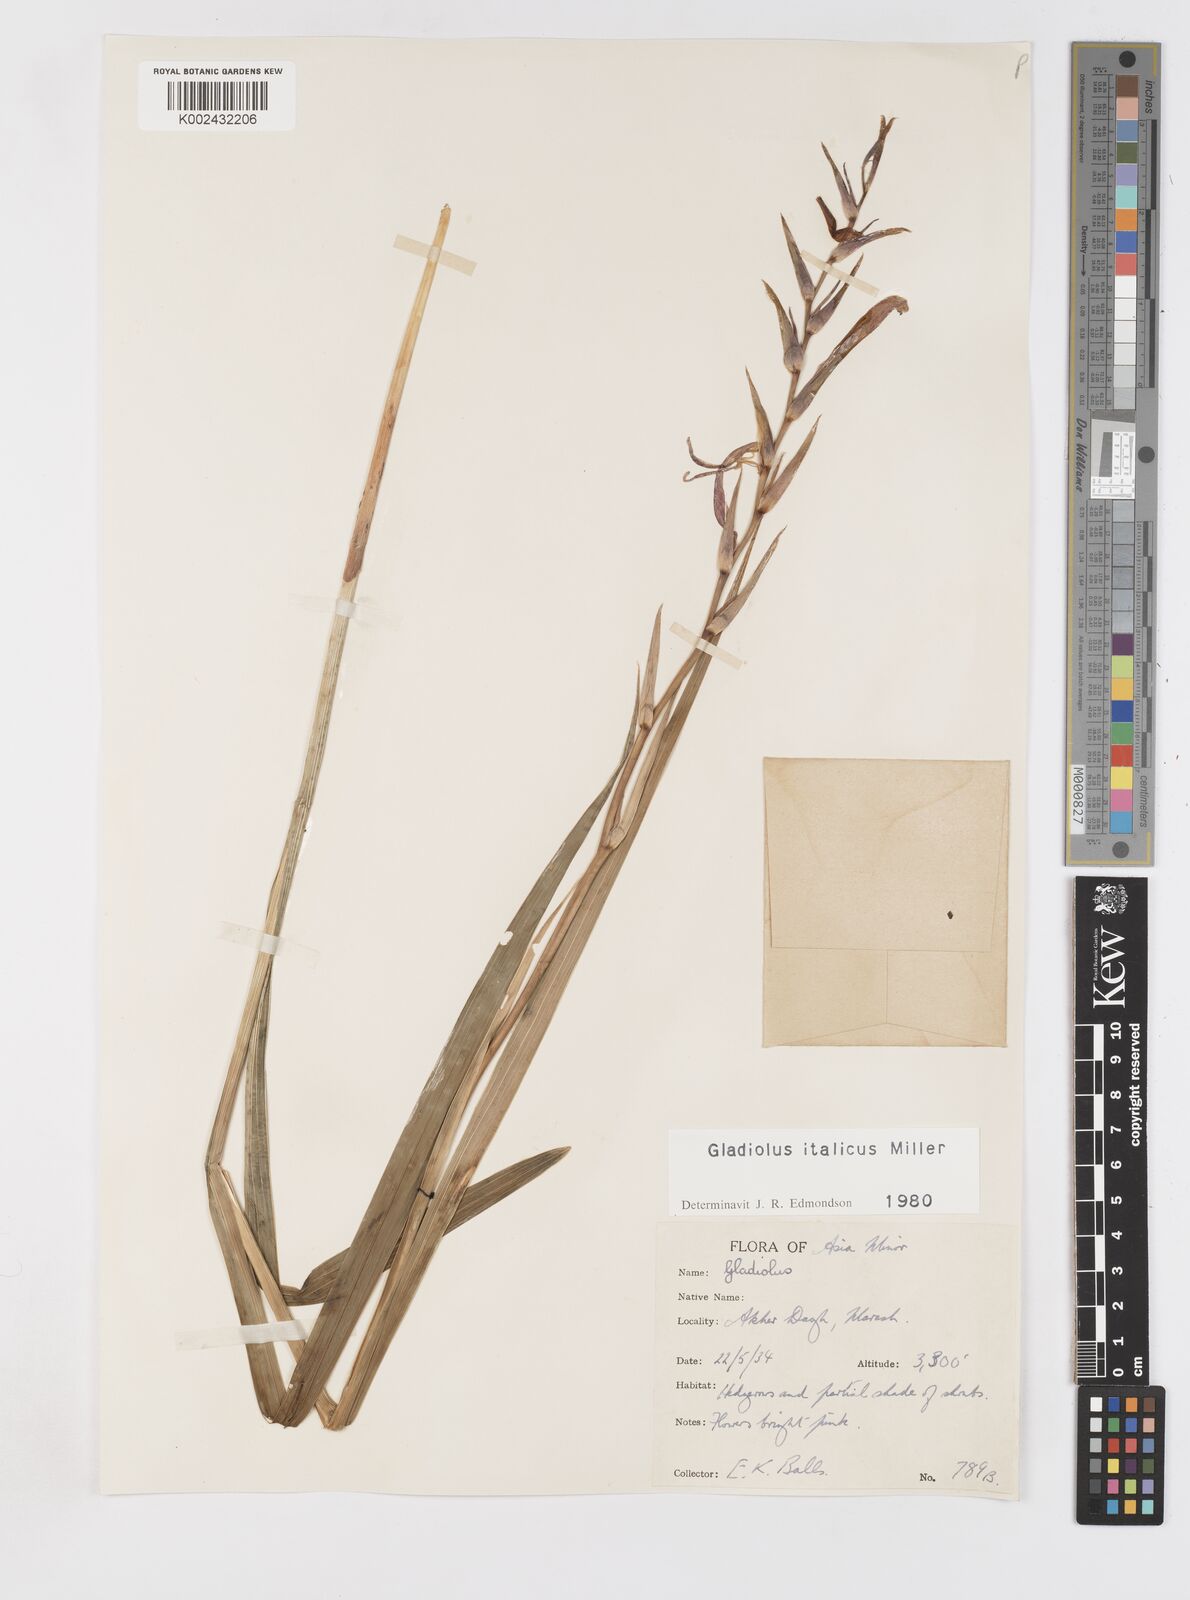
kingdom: Plantae
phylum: Tracheophyta
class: Liliopsida
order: Asparagales
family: Iridaceae
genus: Gladiolus
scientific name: Gladiolus italicus
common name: Field gladiolus
